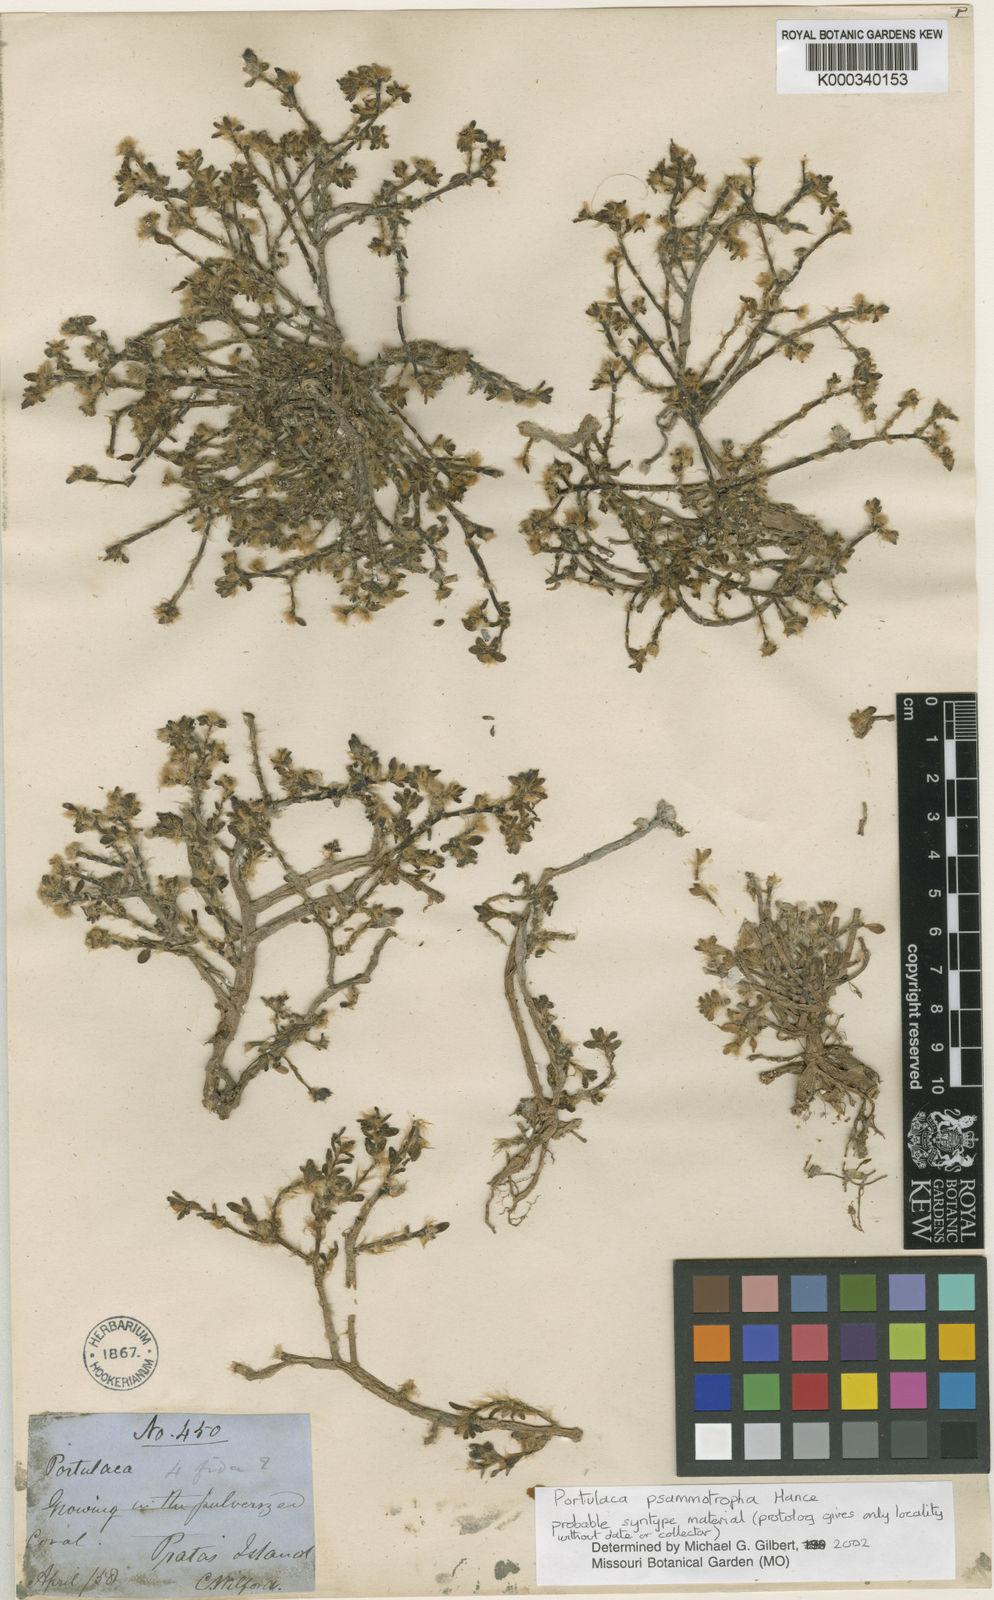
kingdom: Plantae
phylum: Tracheophyta
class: Magnoliopsida
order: Caryophyllales
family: Portulacaceae
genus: Portulaca
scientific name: Portulaca psammotropha
